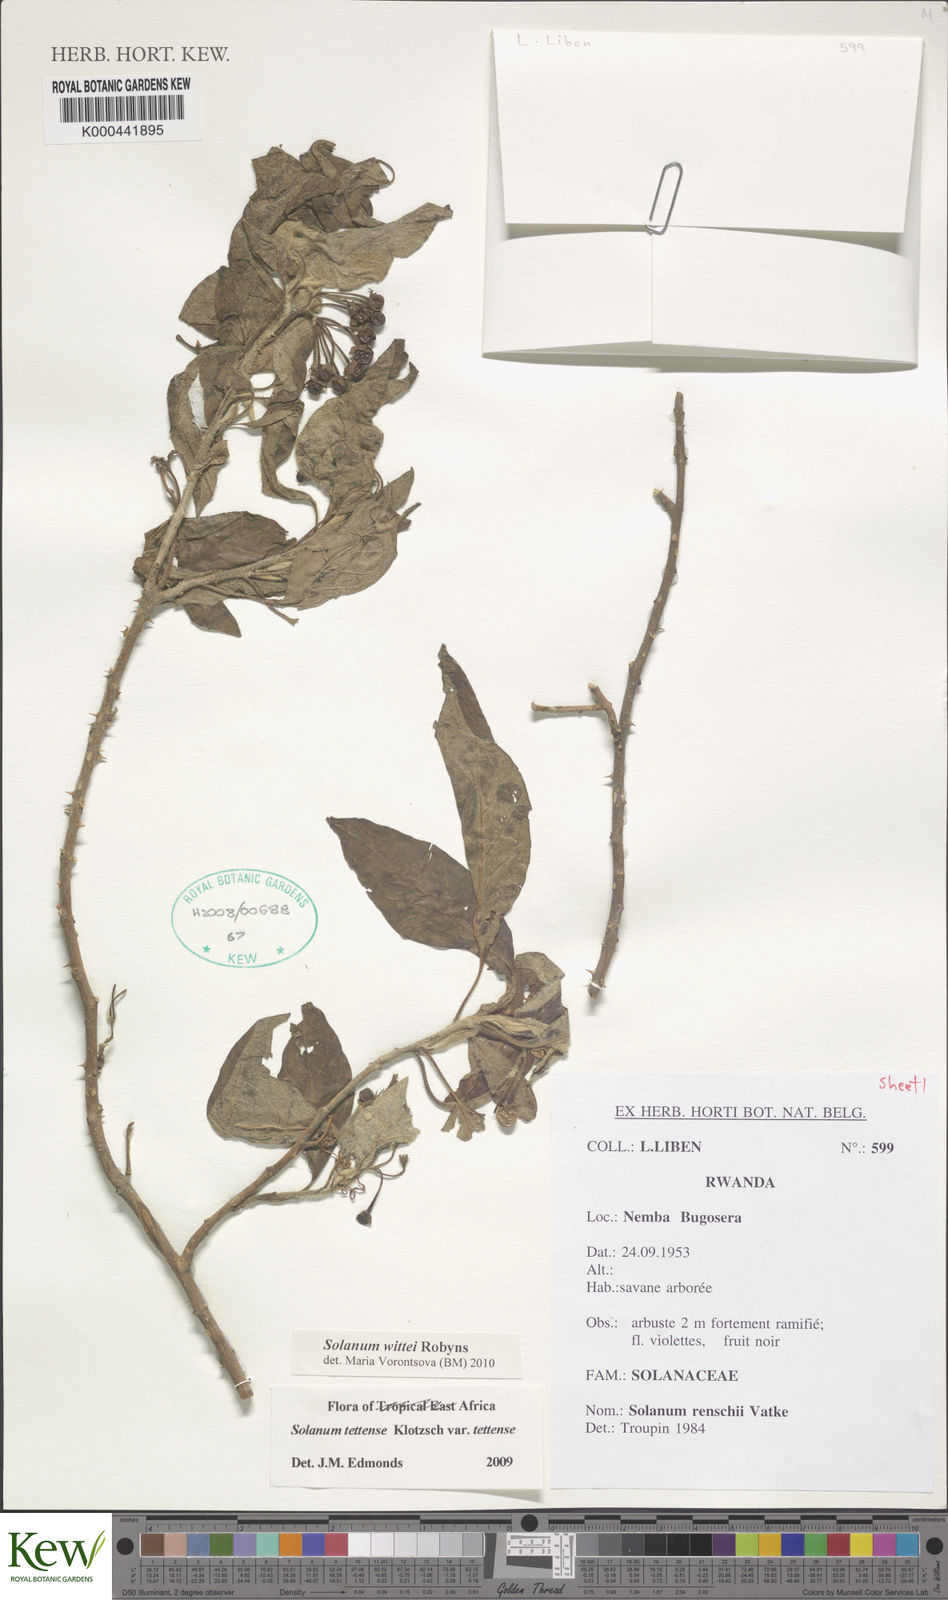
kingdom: Plantae
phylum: Tracheophyta
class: Magnoliopsida
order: Solanales
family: Solanaceae
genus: Solanum
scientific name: Solanum wittei
